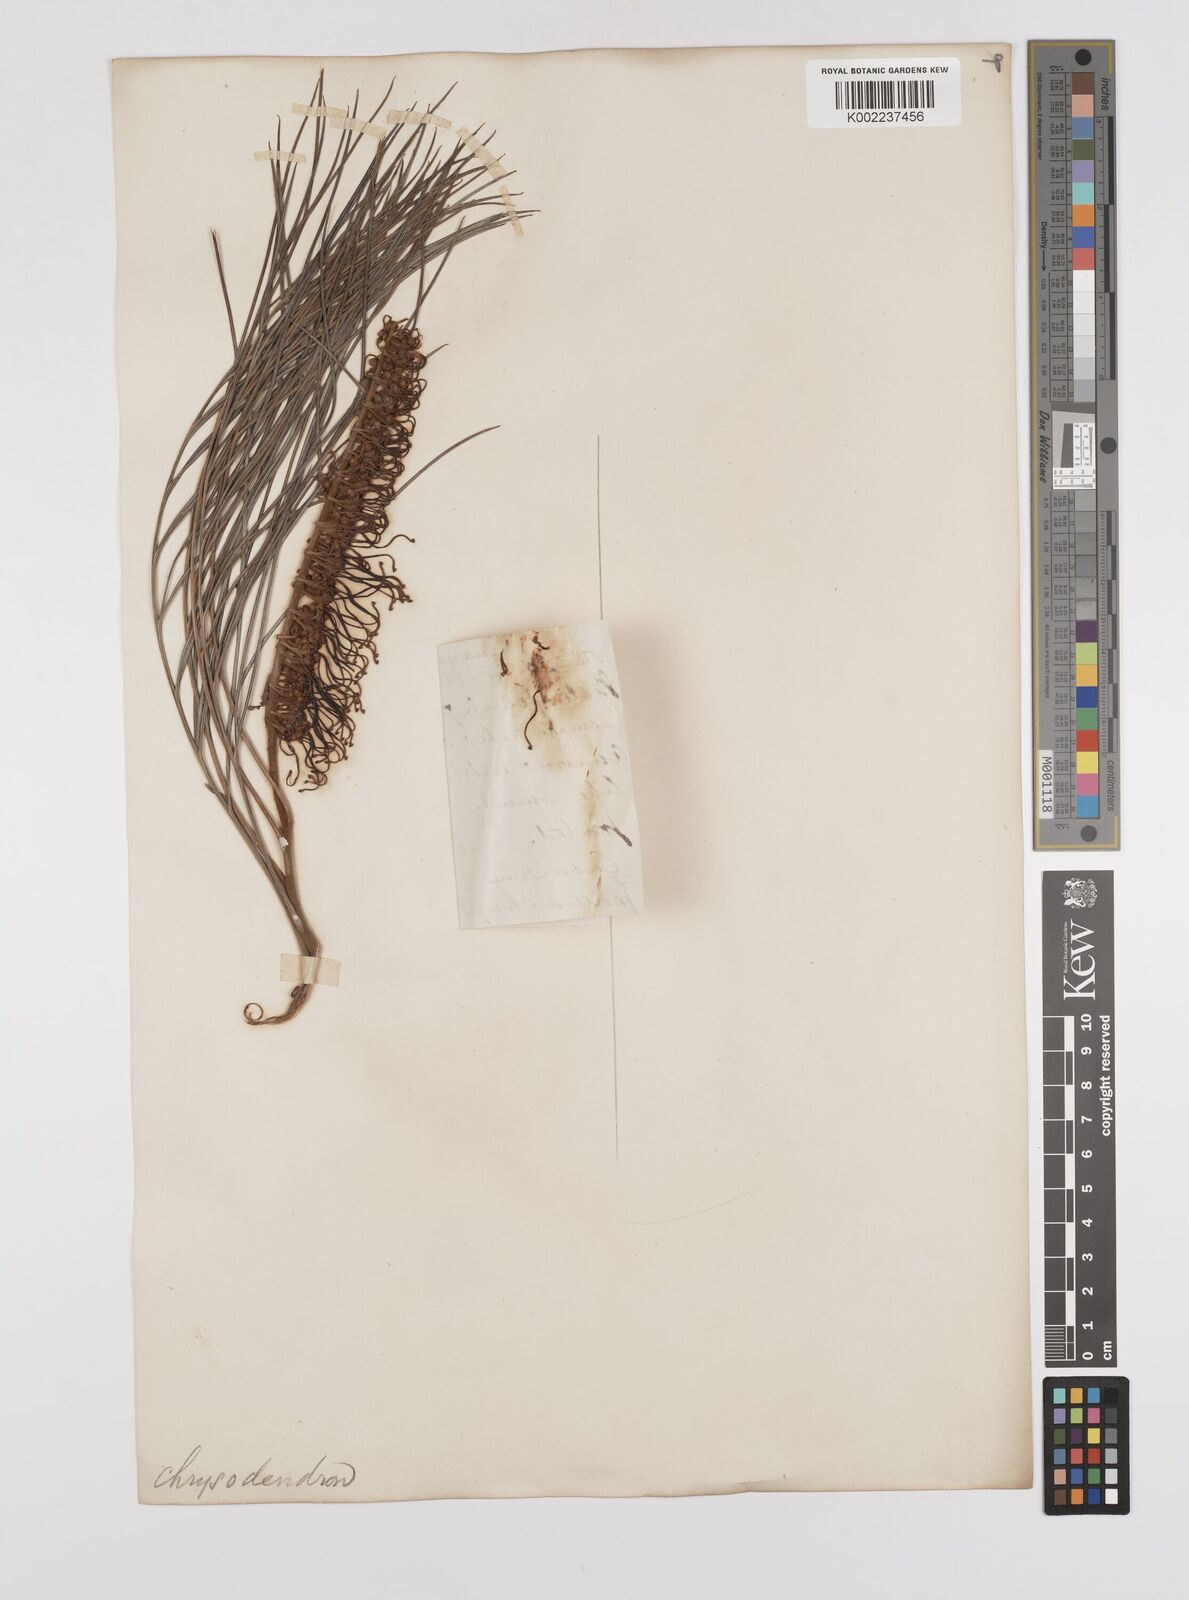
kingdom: Plantae
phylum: Tracheophyta
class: Magnoliopsida
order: Proteales
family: Proteaceae
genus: Grevillea
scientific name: Grevillea pteridifolia
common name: Golden grevillea
